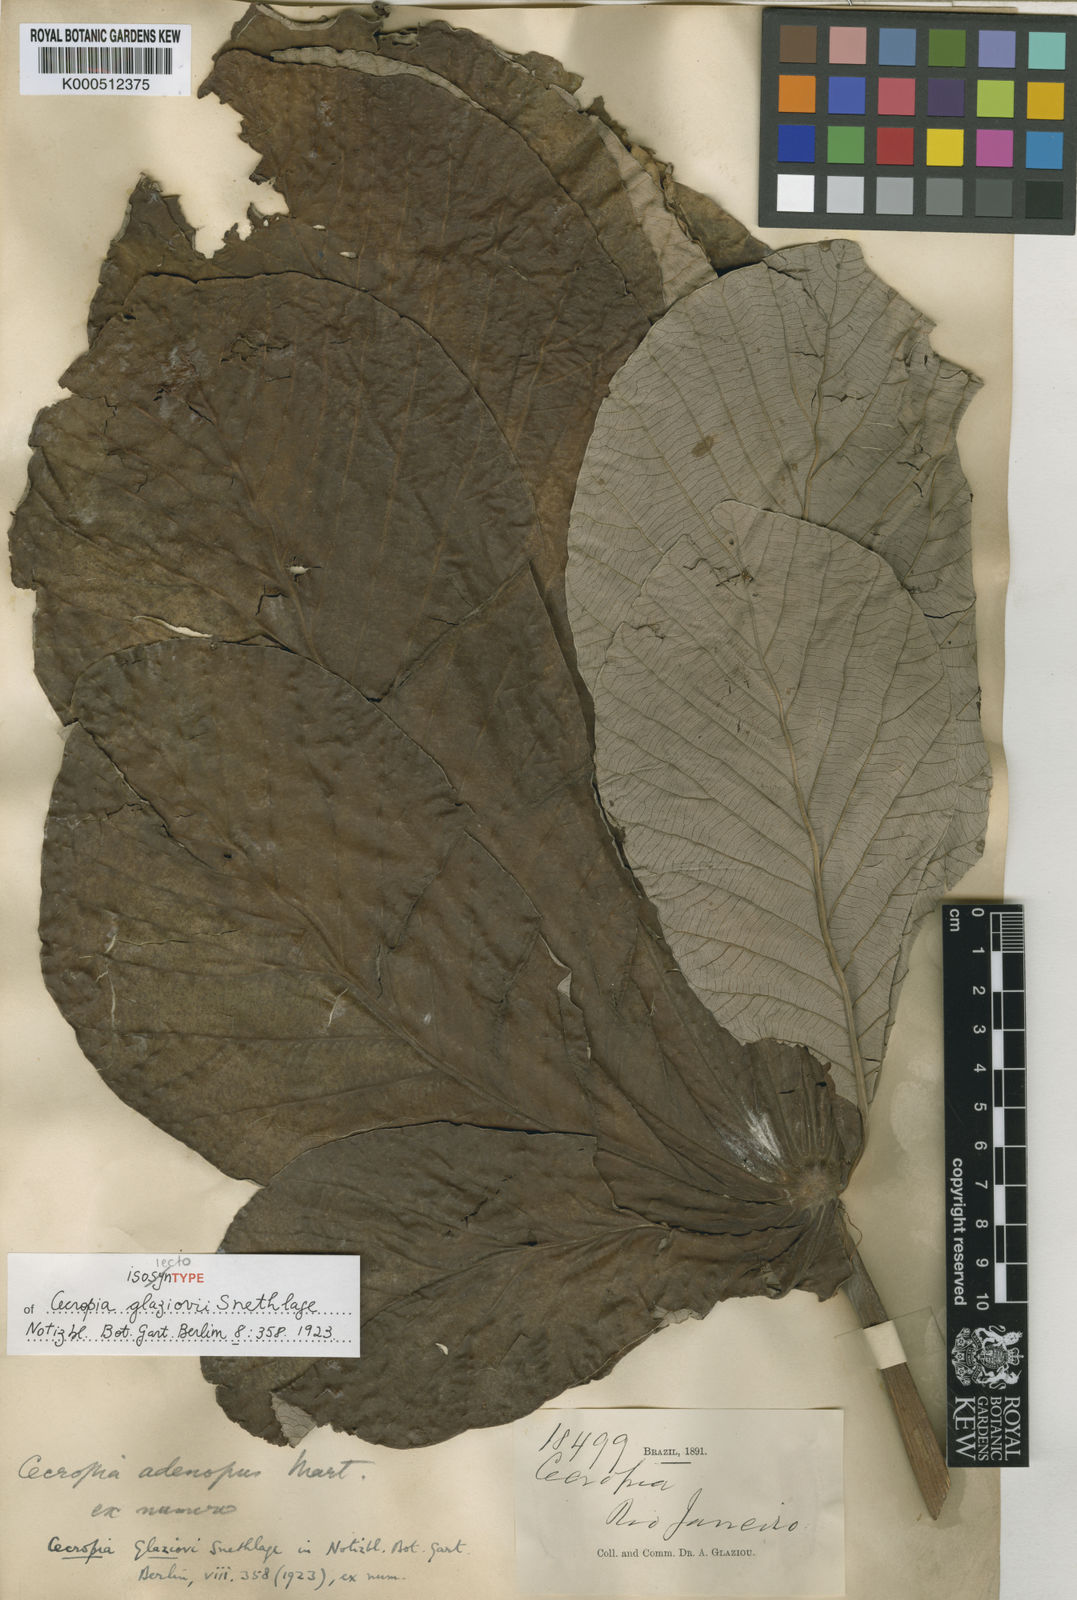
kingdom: Plantae
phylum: Tracheophyta
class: Magnoliopsida
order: Rosales
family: Urticaceae
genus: Cecropia
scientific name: Cecropia glaziovii
